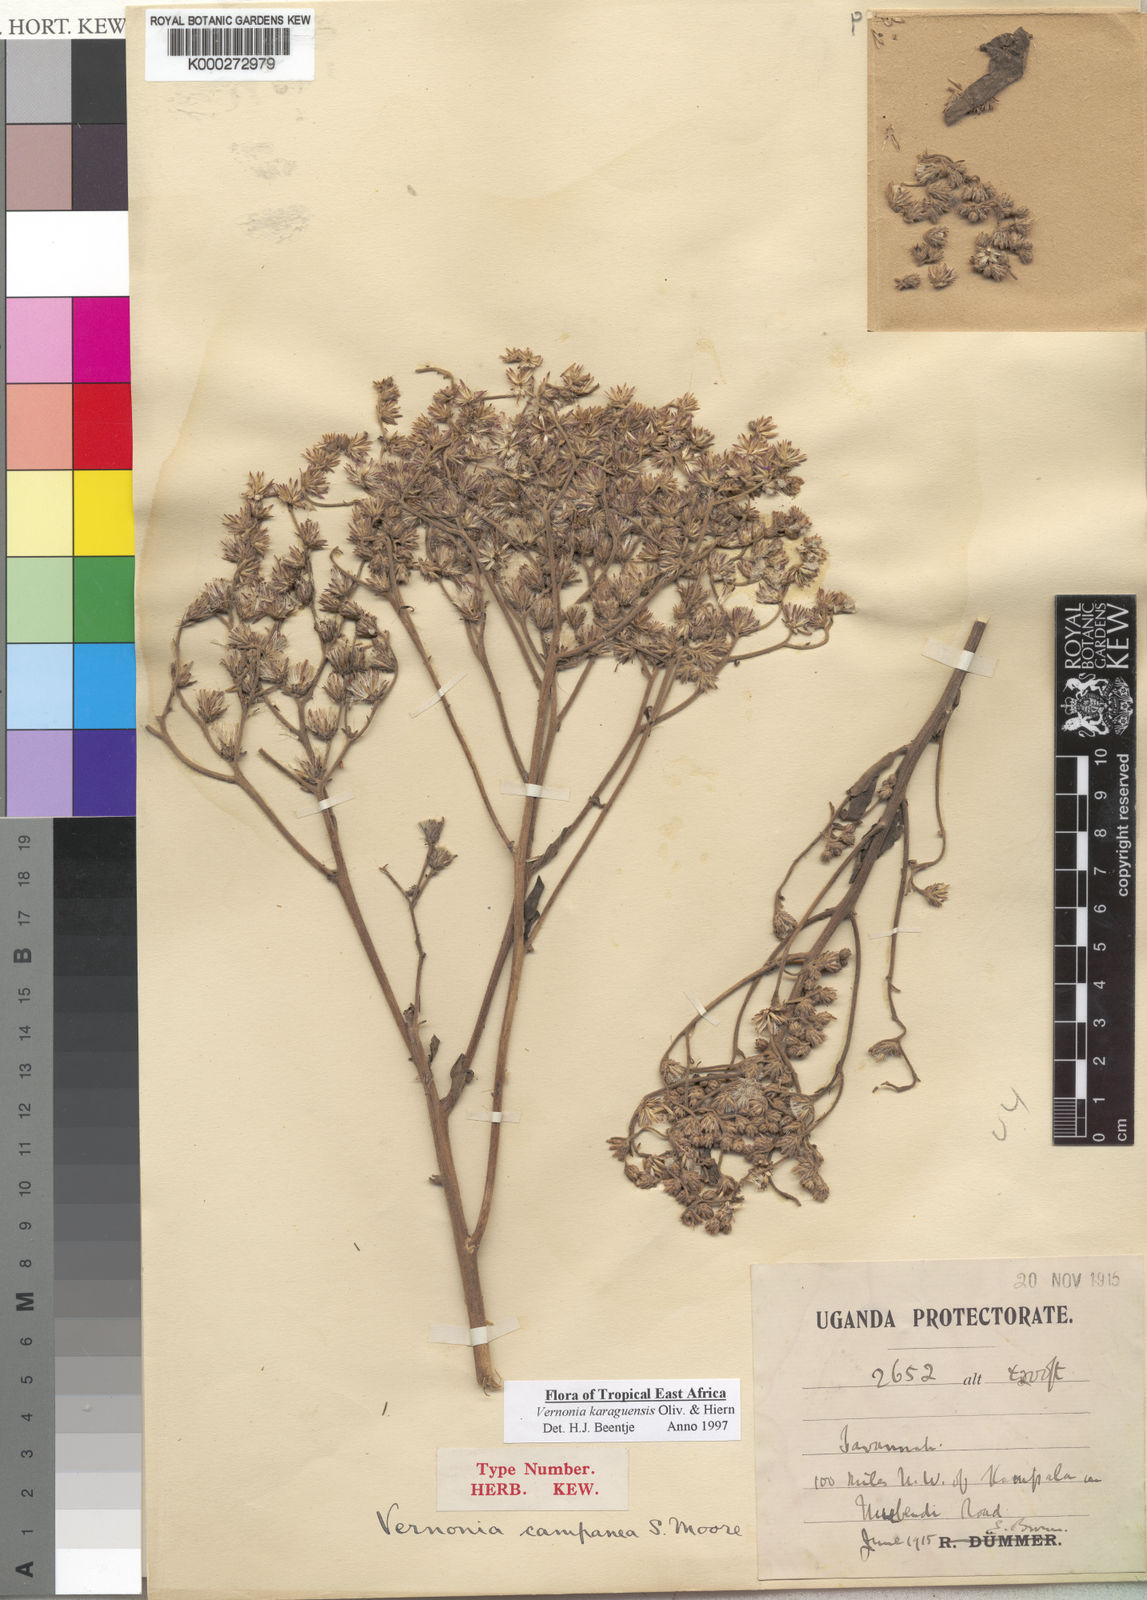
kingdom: Plantae
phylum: Tracheophyta
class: Magnoliopsida
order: Asterales
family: Asteraceae
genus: Orbivestus
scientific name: Orbivestus karaguensis
